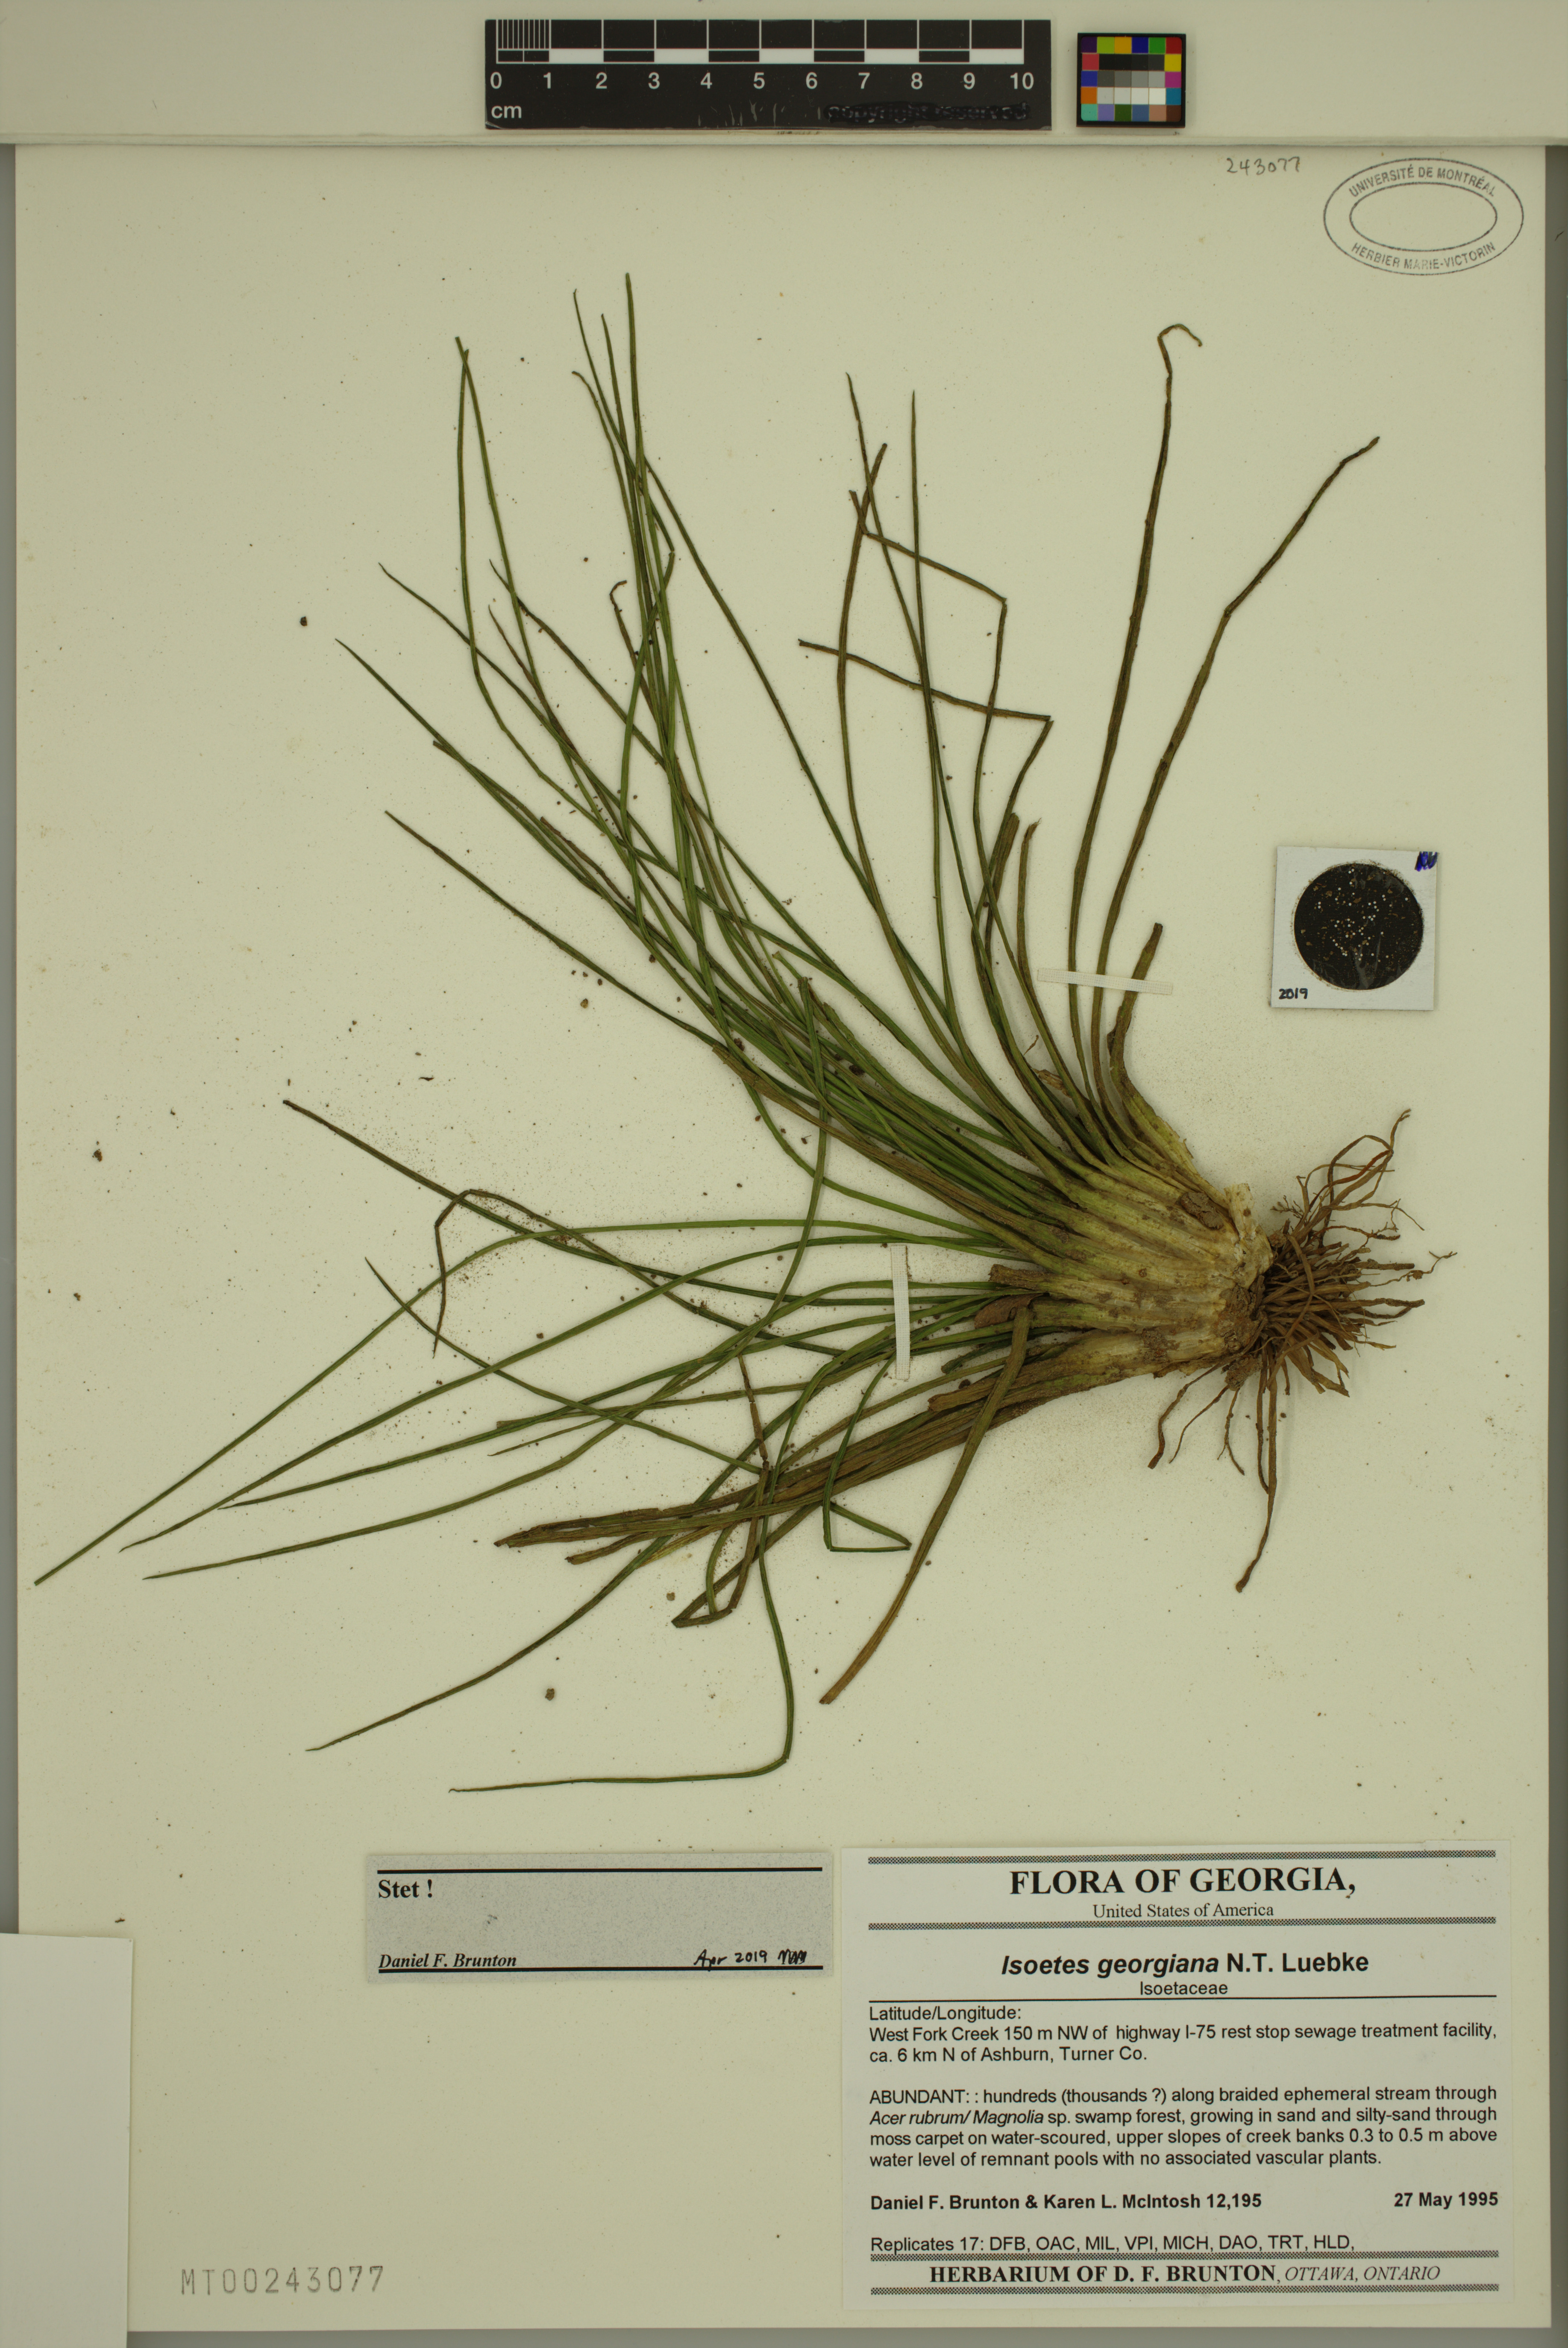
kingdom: Plantae
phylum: Tracheophyta
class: Lycopodiopsida
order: Isoetales
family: Isoetaceae
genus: Isoetes
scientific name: Isoetes georgiana
